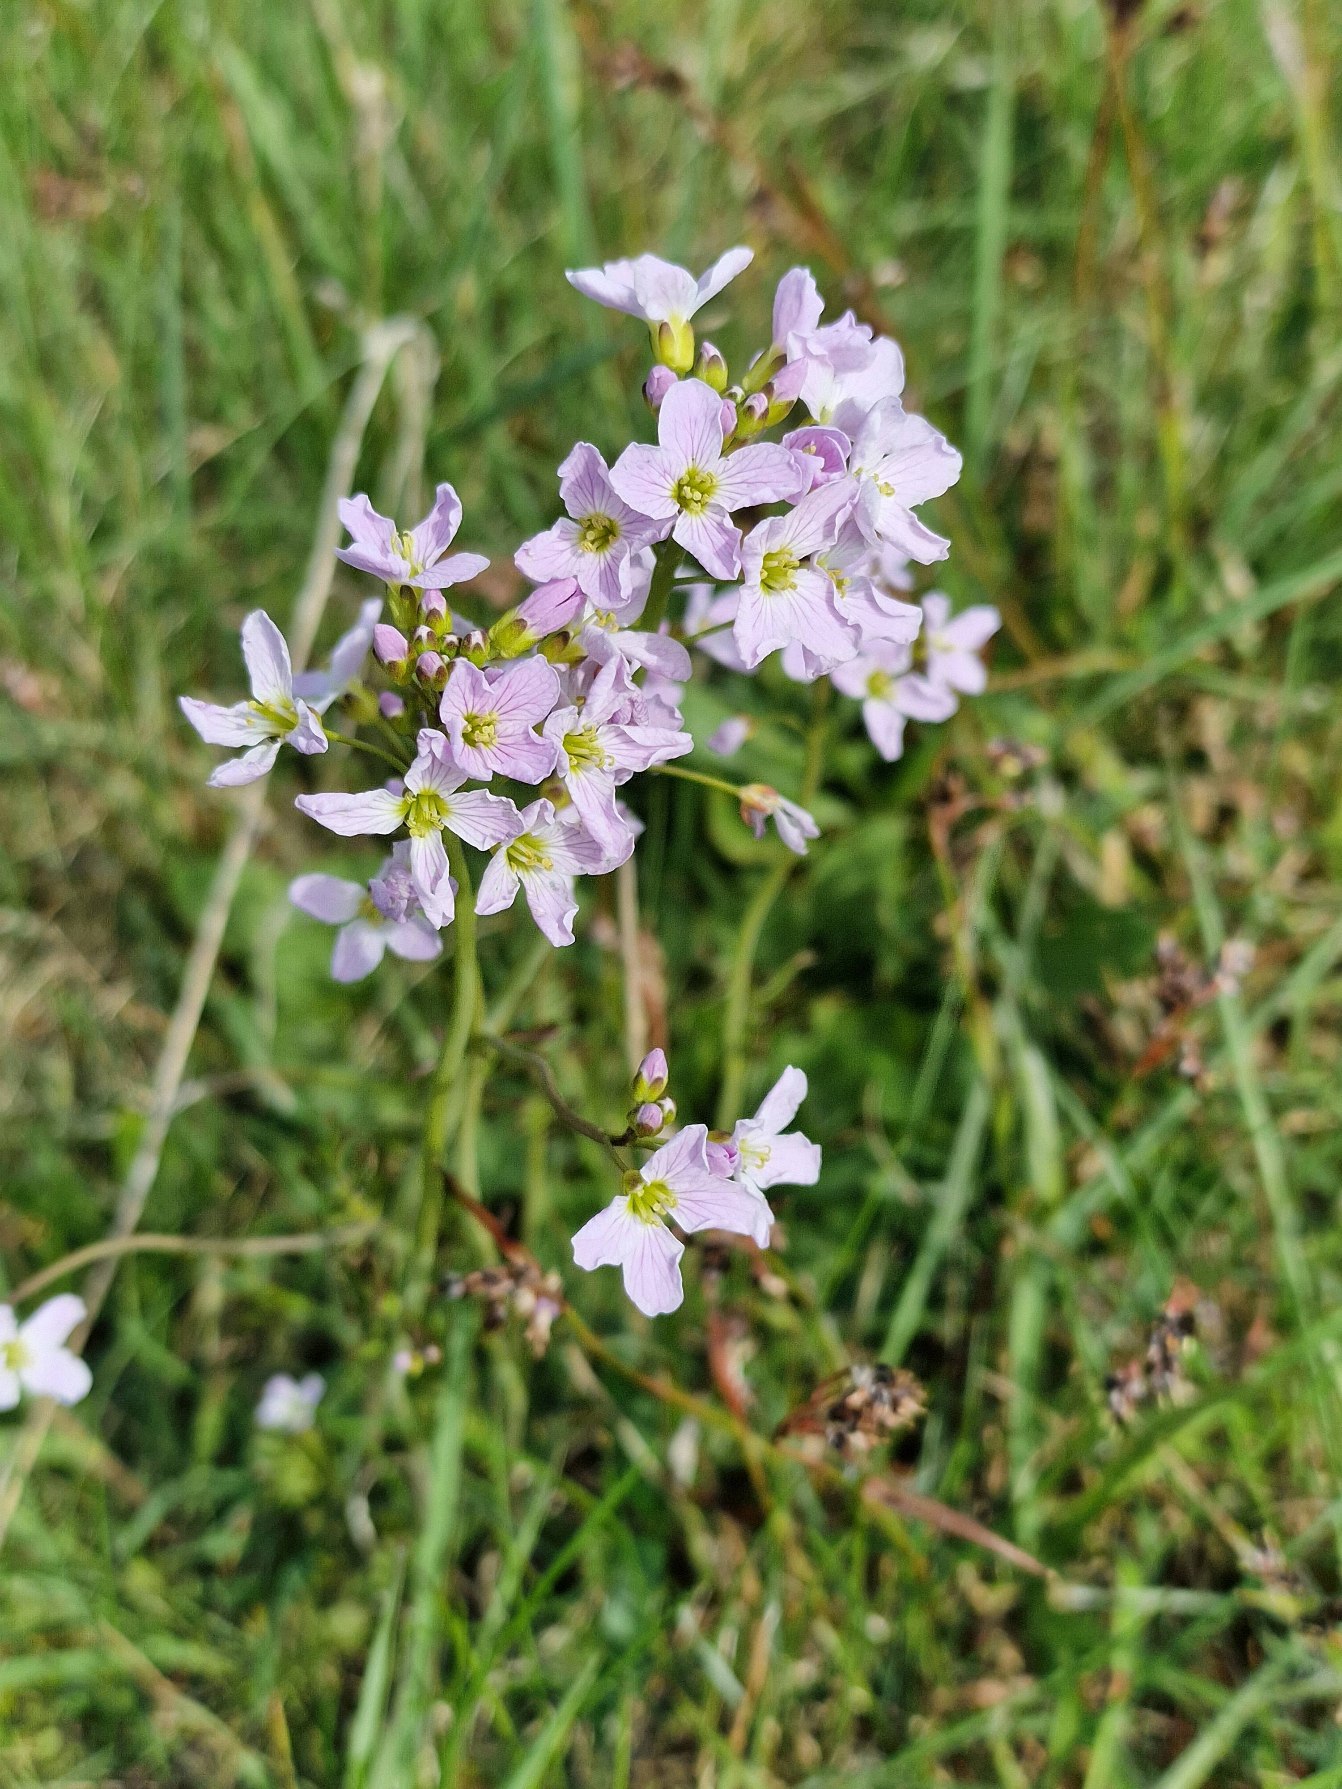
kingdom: Plantae
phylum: Tracheophyta
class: Magnoliopsida
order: Brassicales
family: Brassicaceae
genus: Cardamine
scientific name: Cardamine pratensis
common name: Engkarse
